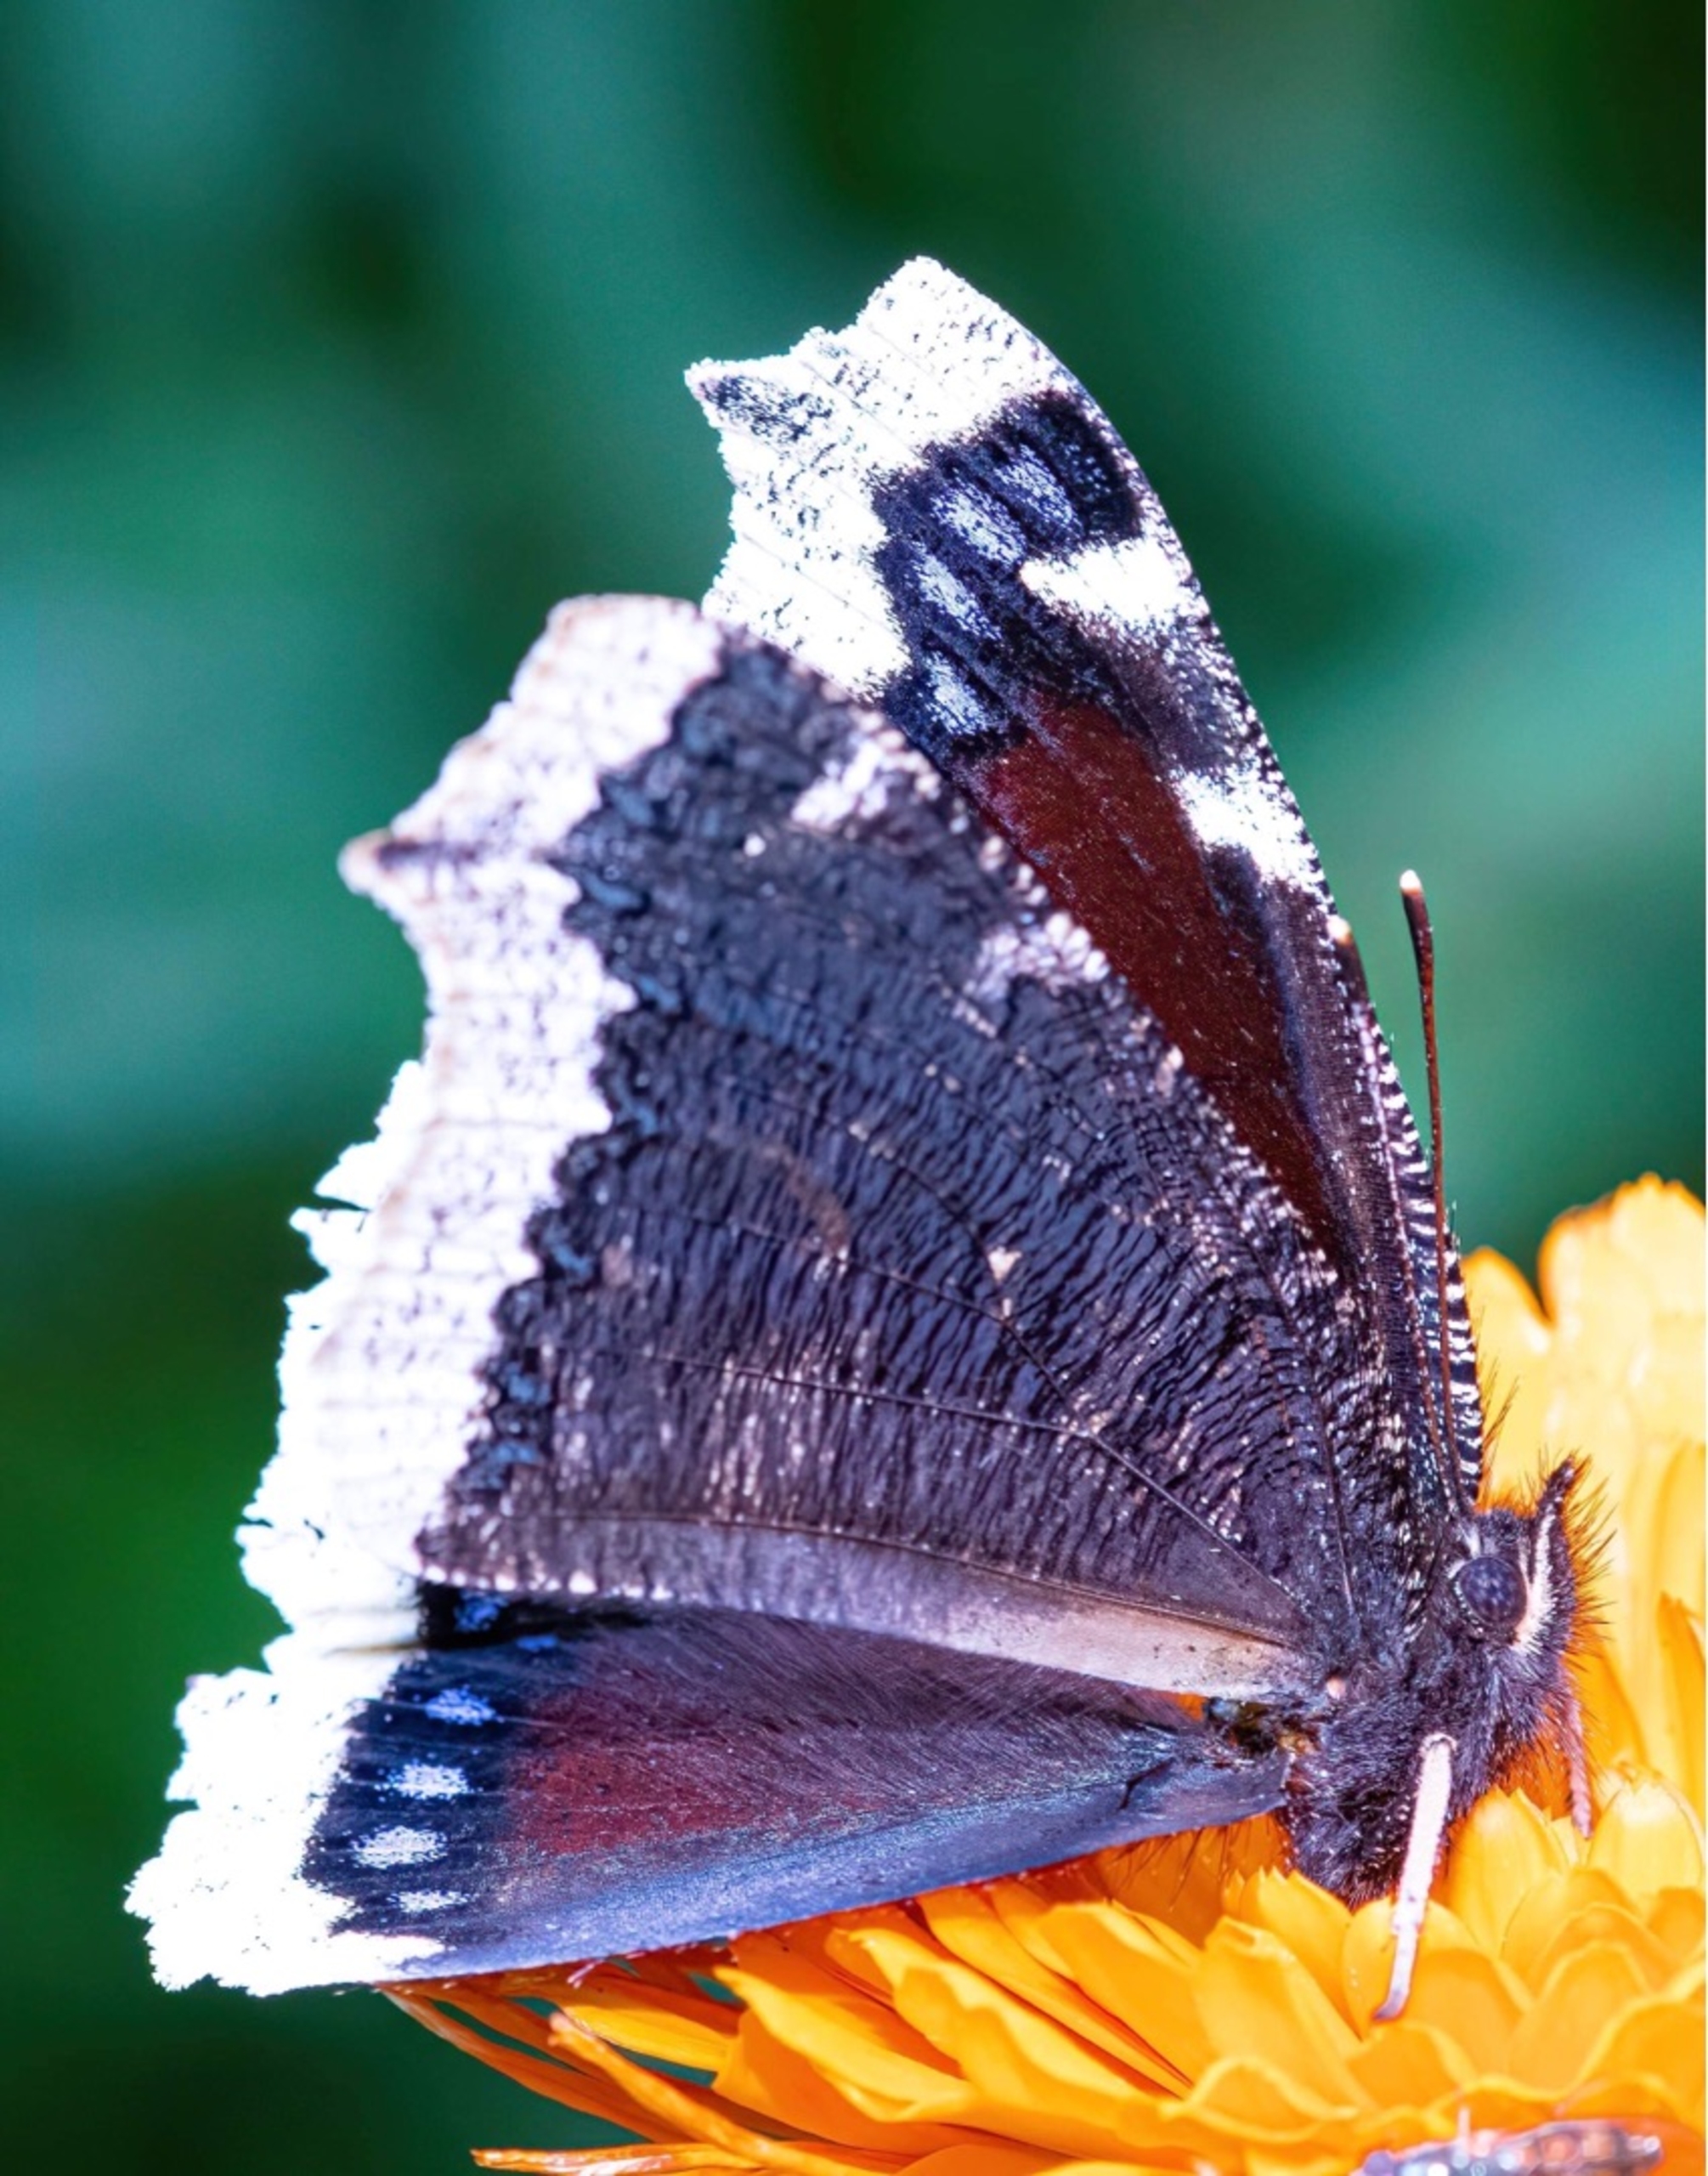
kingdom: Animalia
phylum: Arthropoda
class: Insecta
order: Lepidoptera
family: Nymphalidae
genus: Nymphalis
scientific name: Nymphalis antiopa
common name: Sørgekåbe
